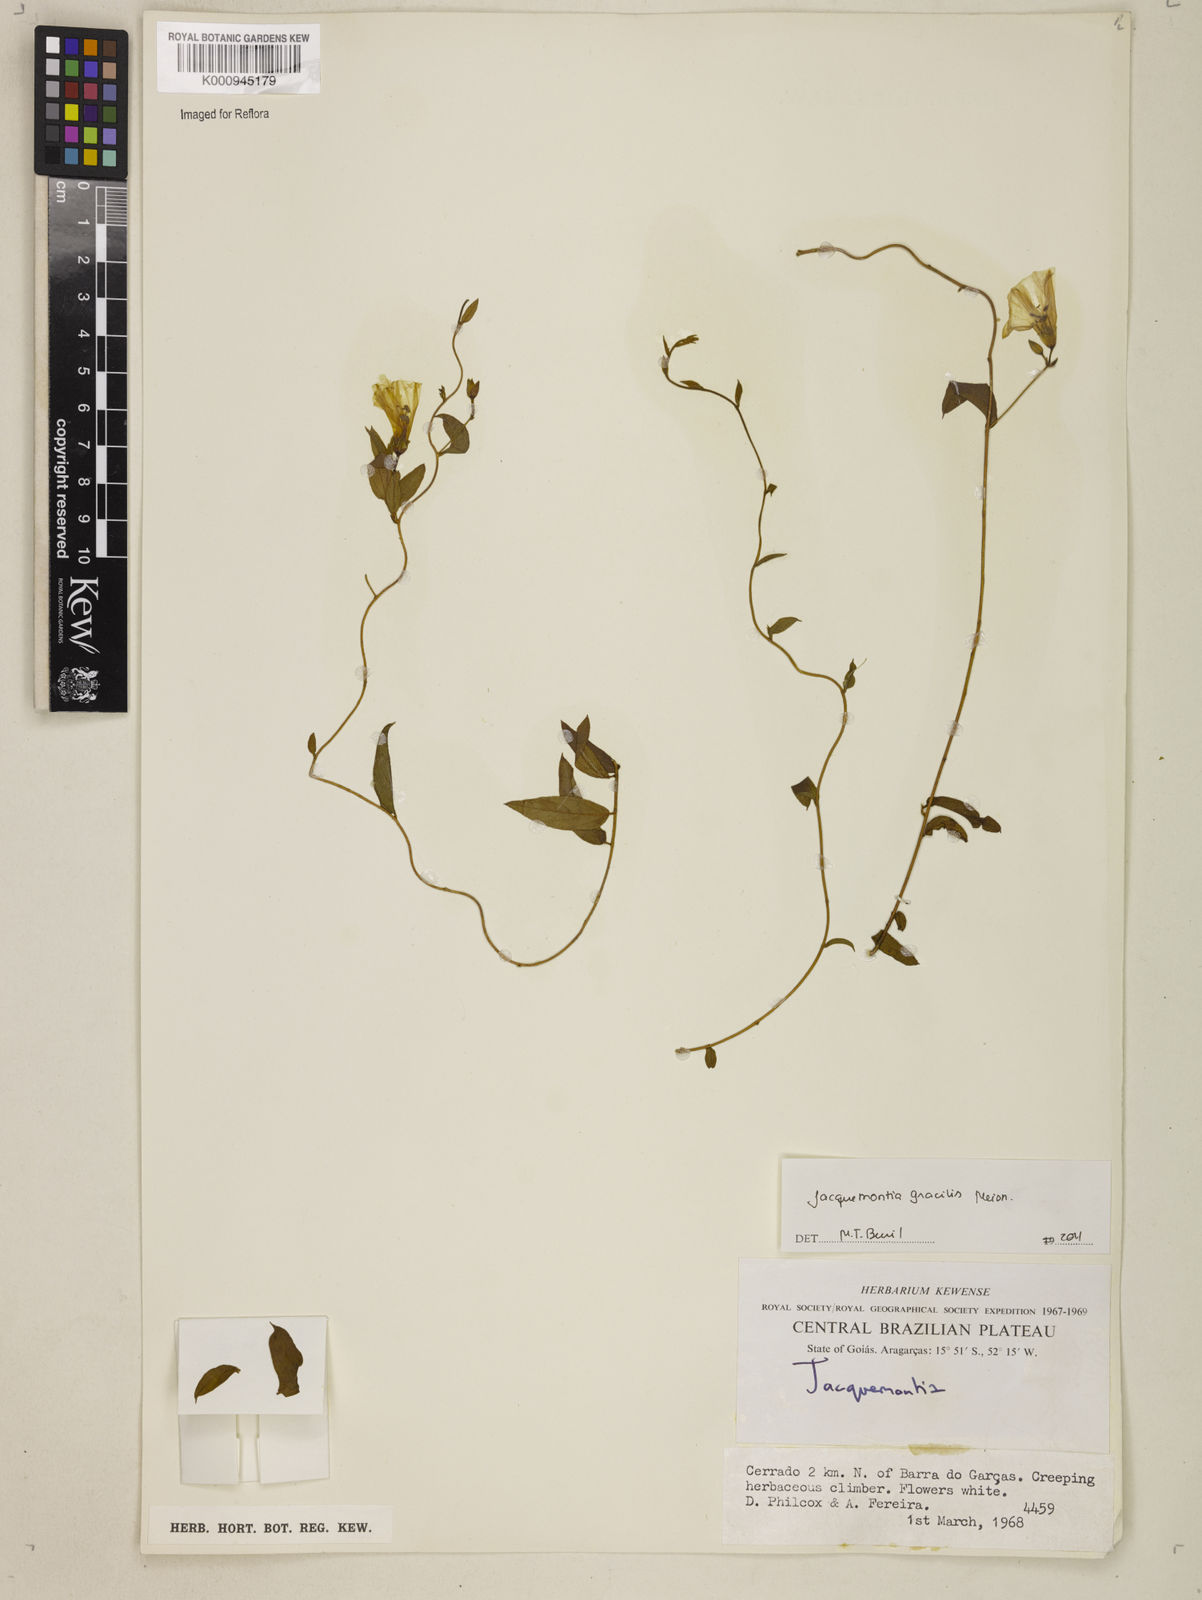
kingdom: Plantae
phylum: Tracheophyta
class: Magnoliopsida
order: Solanales
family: Convolvulaceae
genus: Jacquemontia
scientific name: Jacquemontia gracilis
